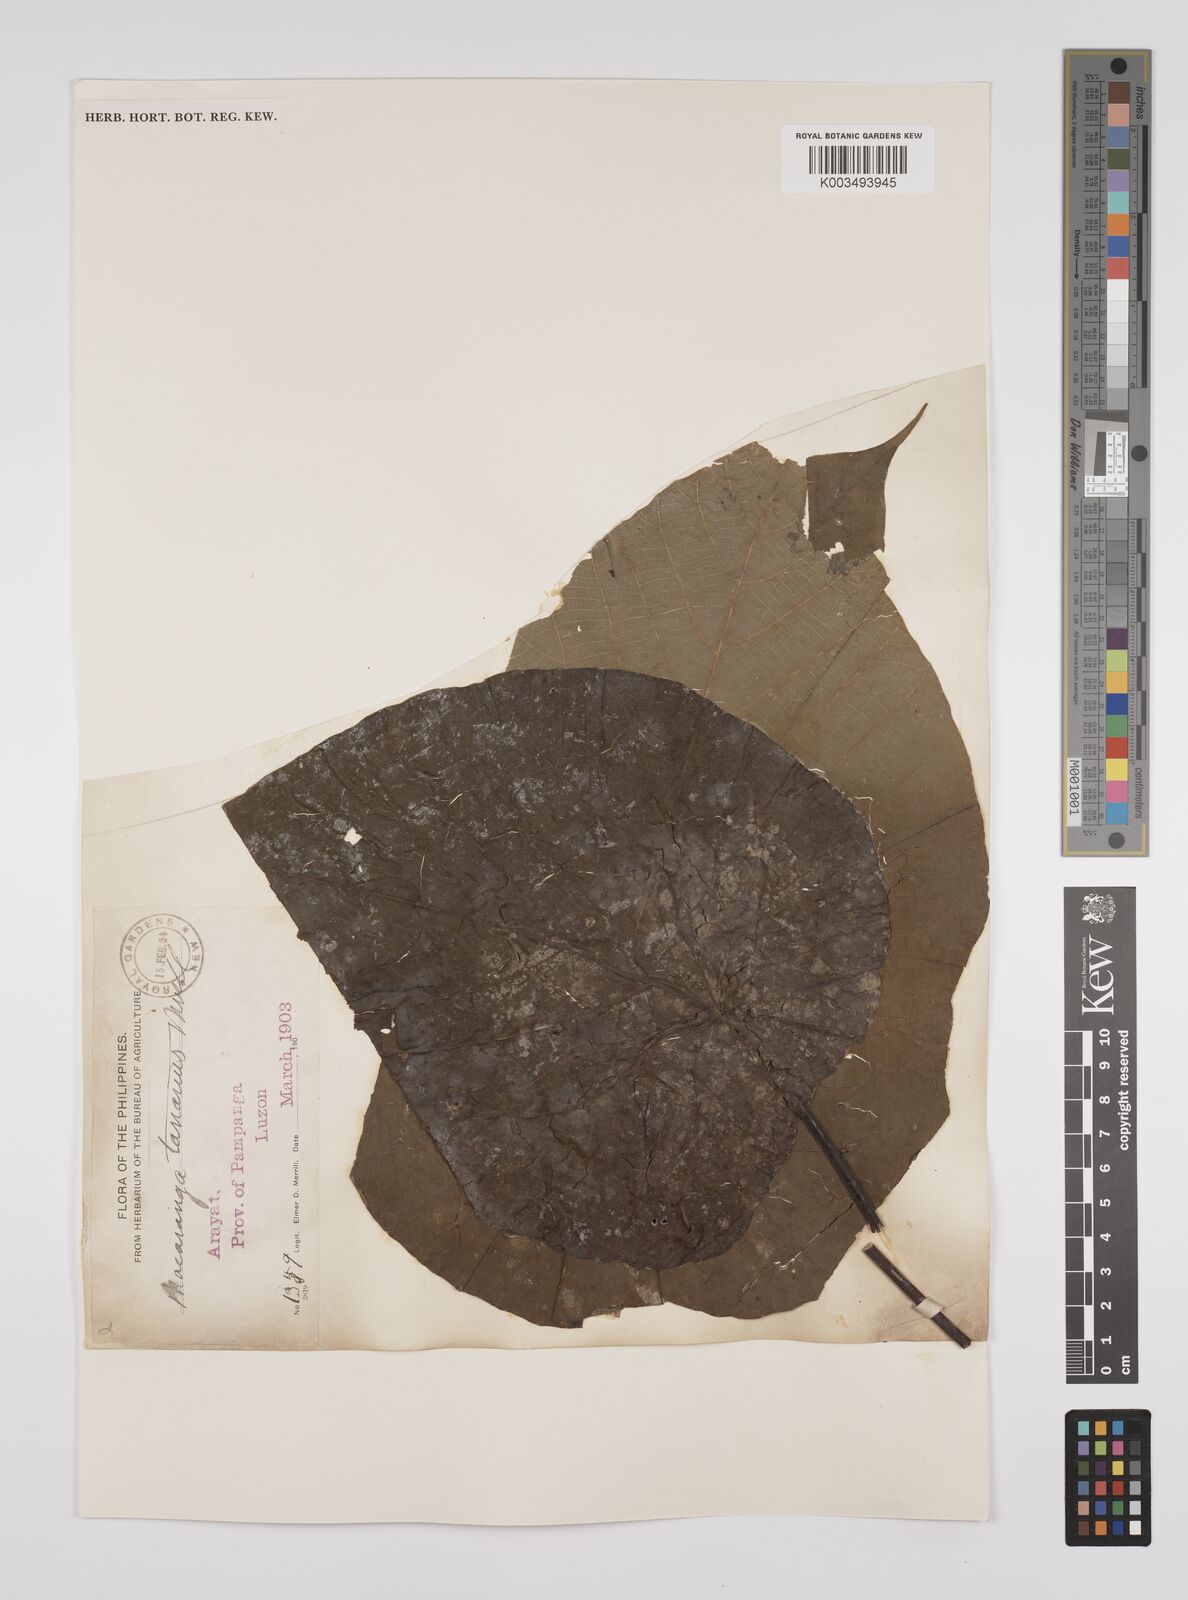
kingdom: Plantae
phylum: Tracheophyta
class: Magnoliopsida
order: Malpighiales
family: Euphorbiaceae
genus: Macaranga
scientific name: Macaranga tanarius
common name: Parasol leaf tree
